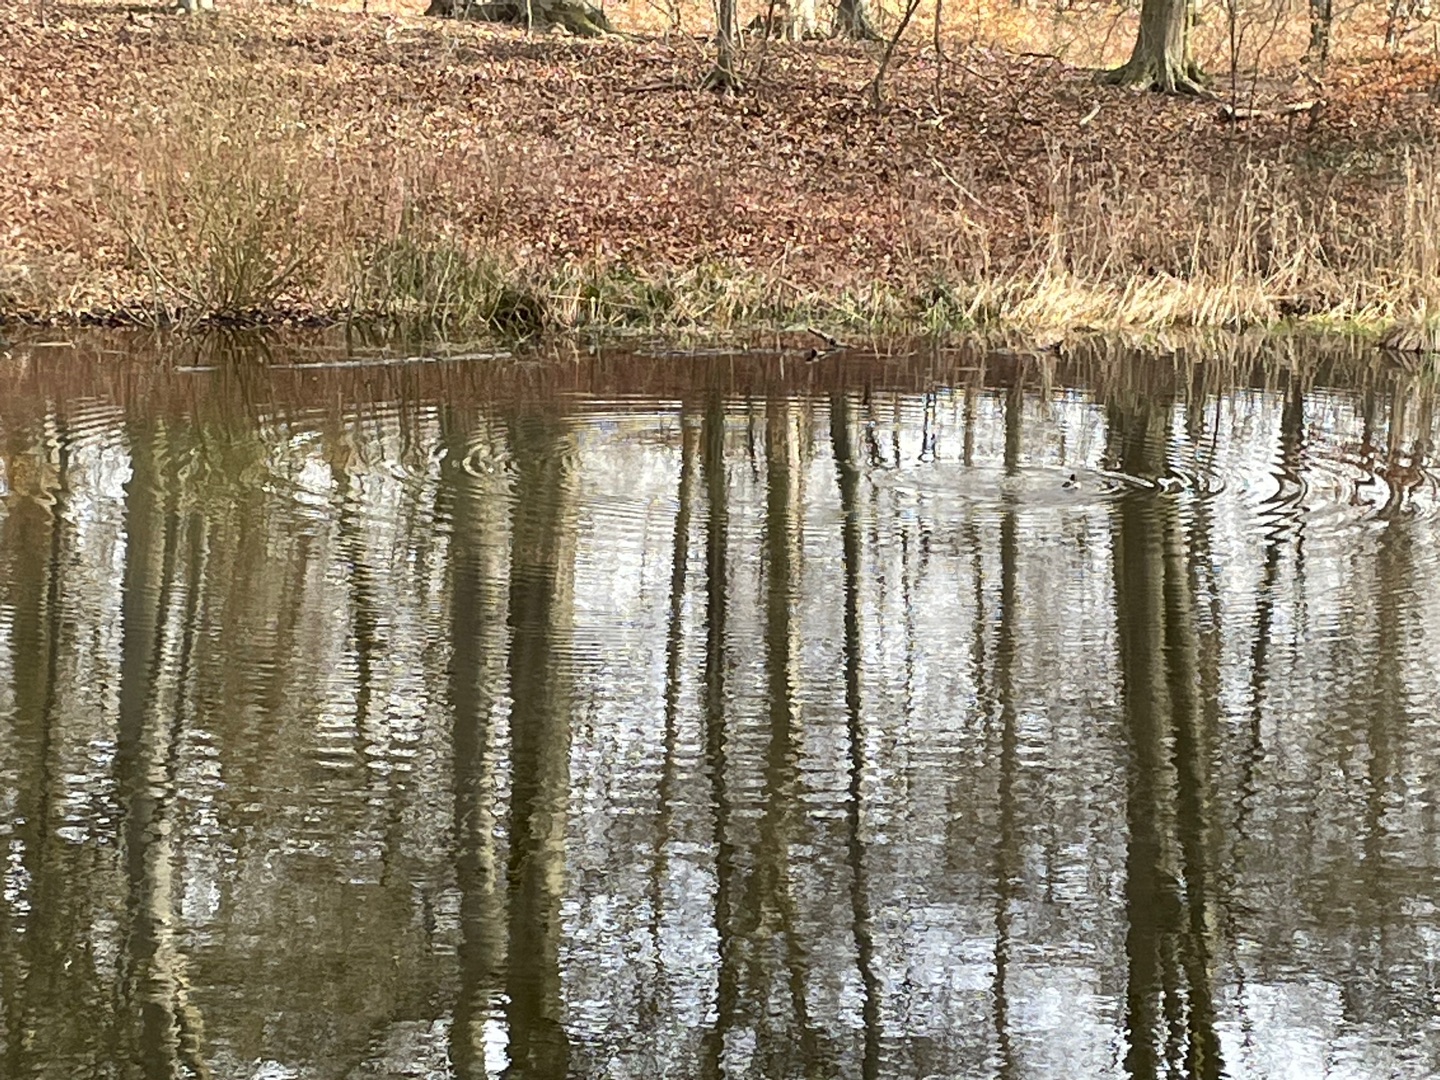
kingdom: Animalia
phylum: Chordata
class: Aves
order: Anseriformes
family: Anatidae
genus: Bucephala
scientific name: Bucephala clangula
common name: Hvinand
